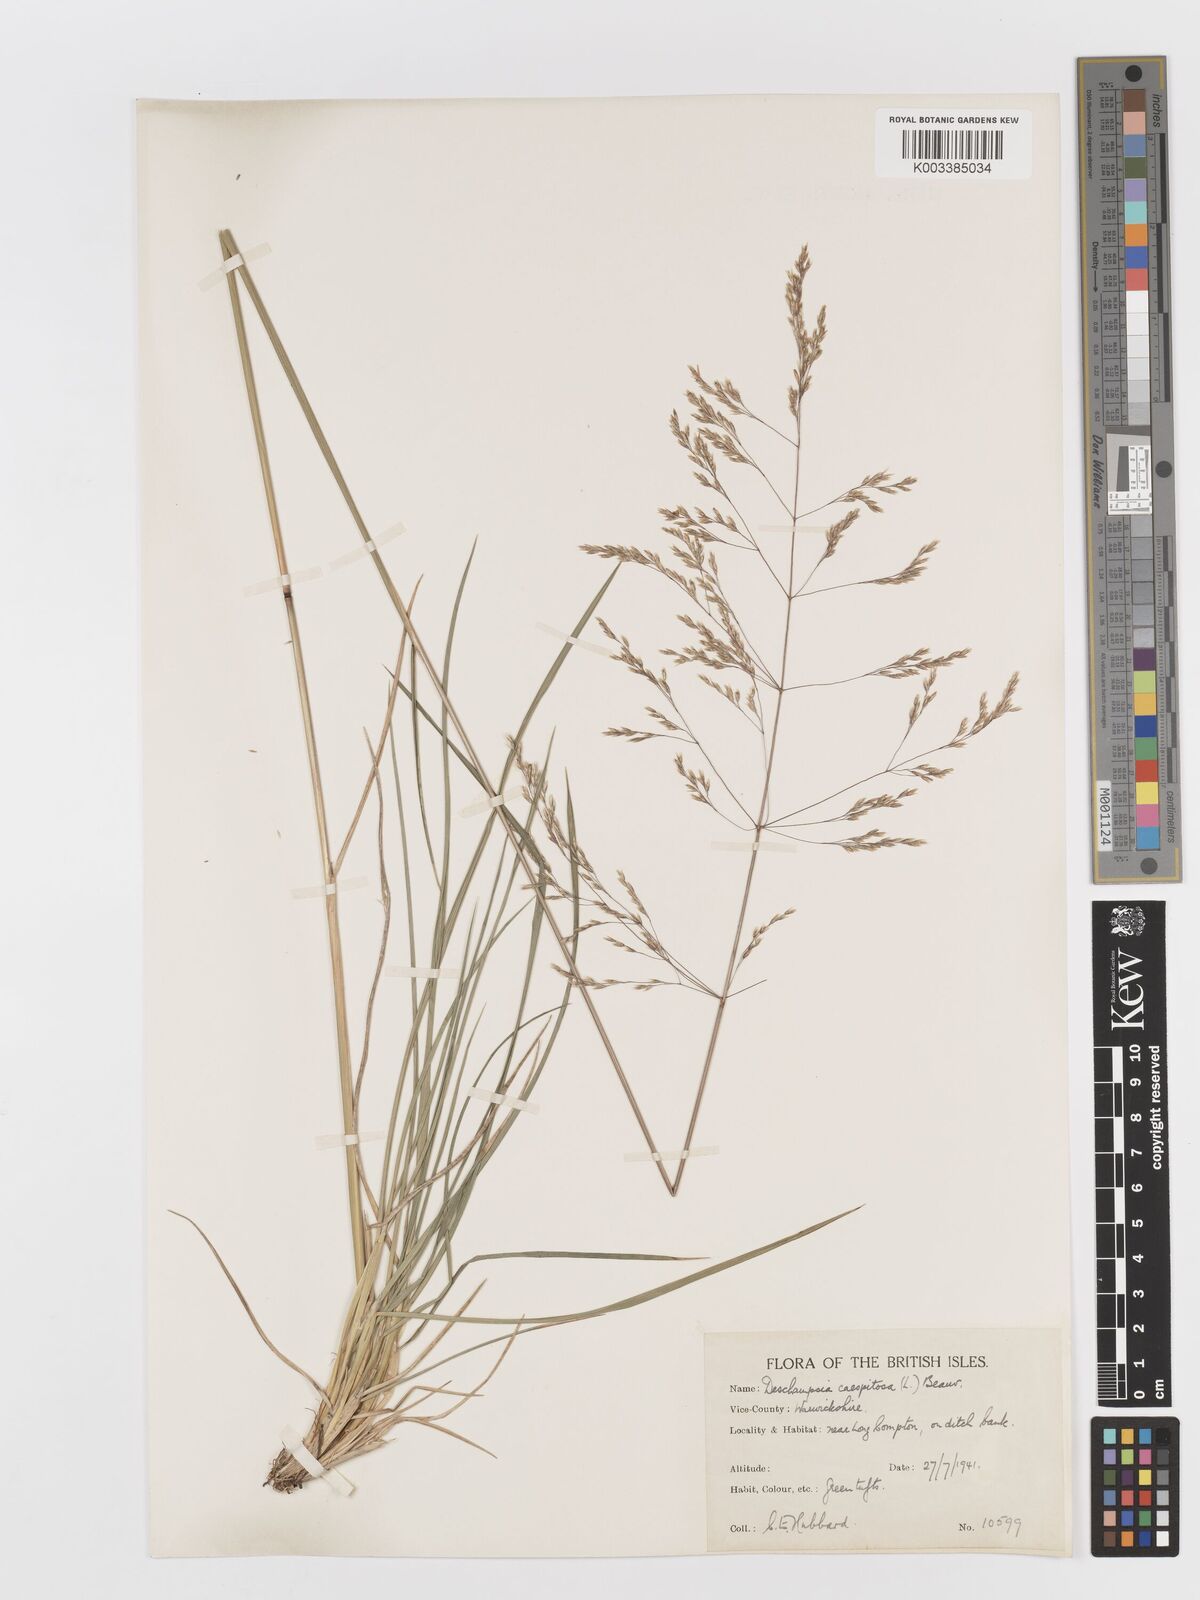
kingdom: Plantae
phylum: Tracheophyta
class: Liliopsida
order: Poales
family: Poaceae
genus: Deschampsia
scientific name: Deschampsia cespitosa
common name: Tufted hair-grass
